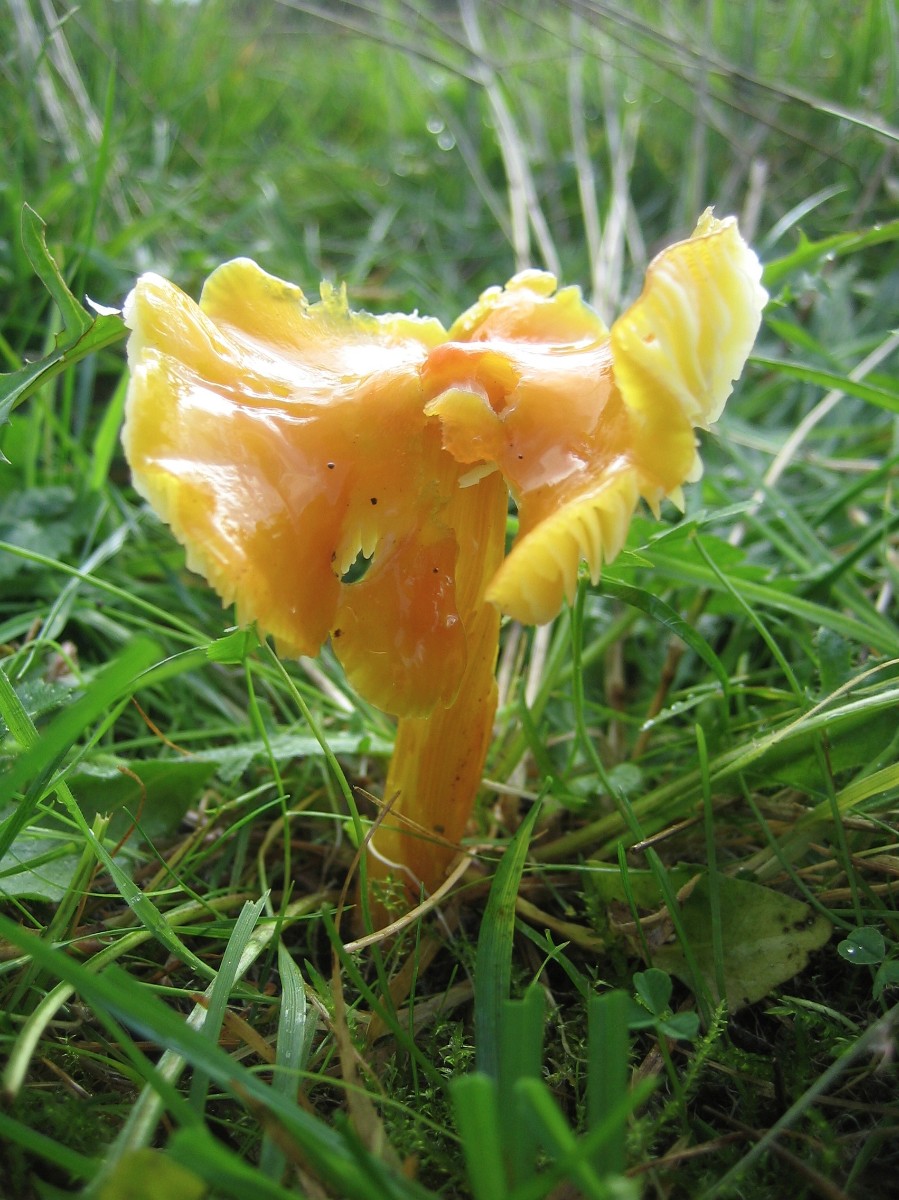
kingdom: Fungi
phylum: Basidiomycota
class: Agaricomycetes
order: Agaricales
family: Hygrophoraceae
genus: Hygrocybe
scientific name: Hygrocybe chlorophana
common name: gul vokshat
